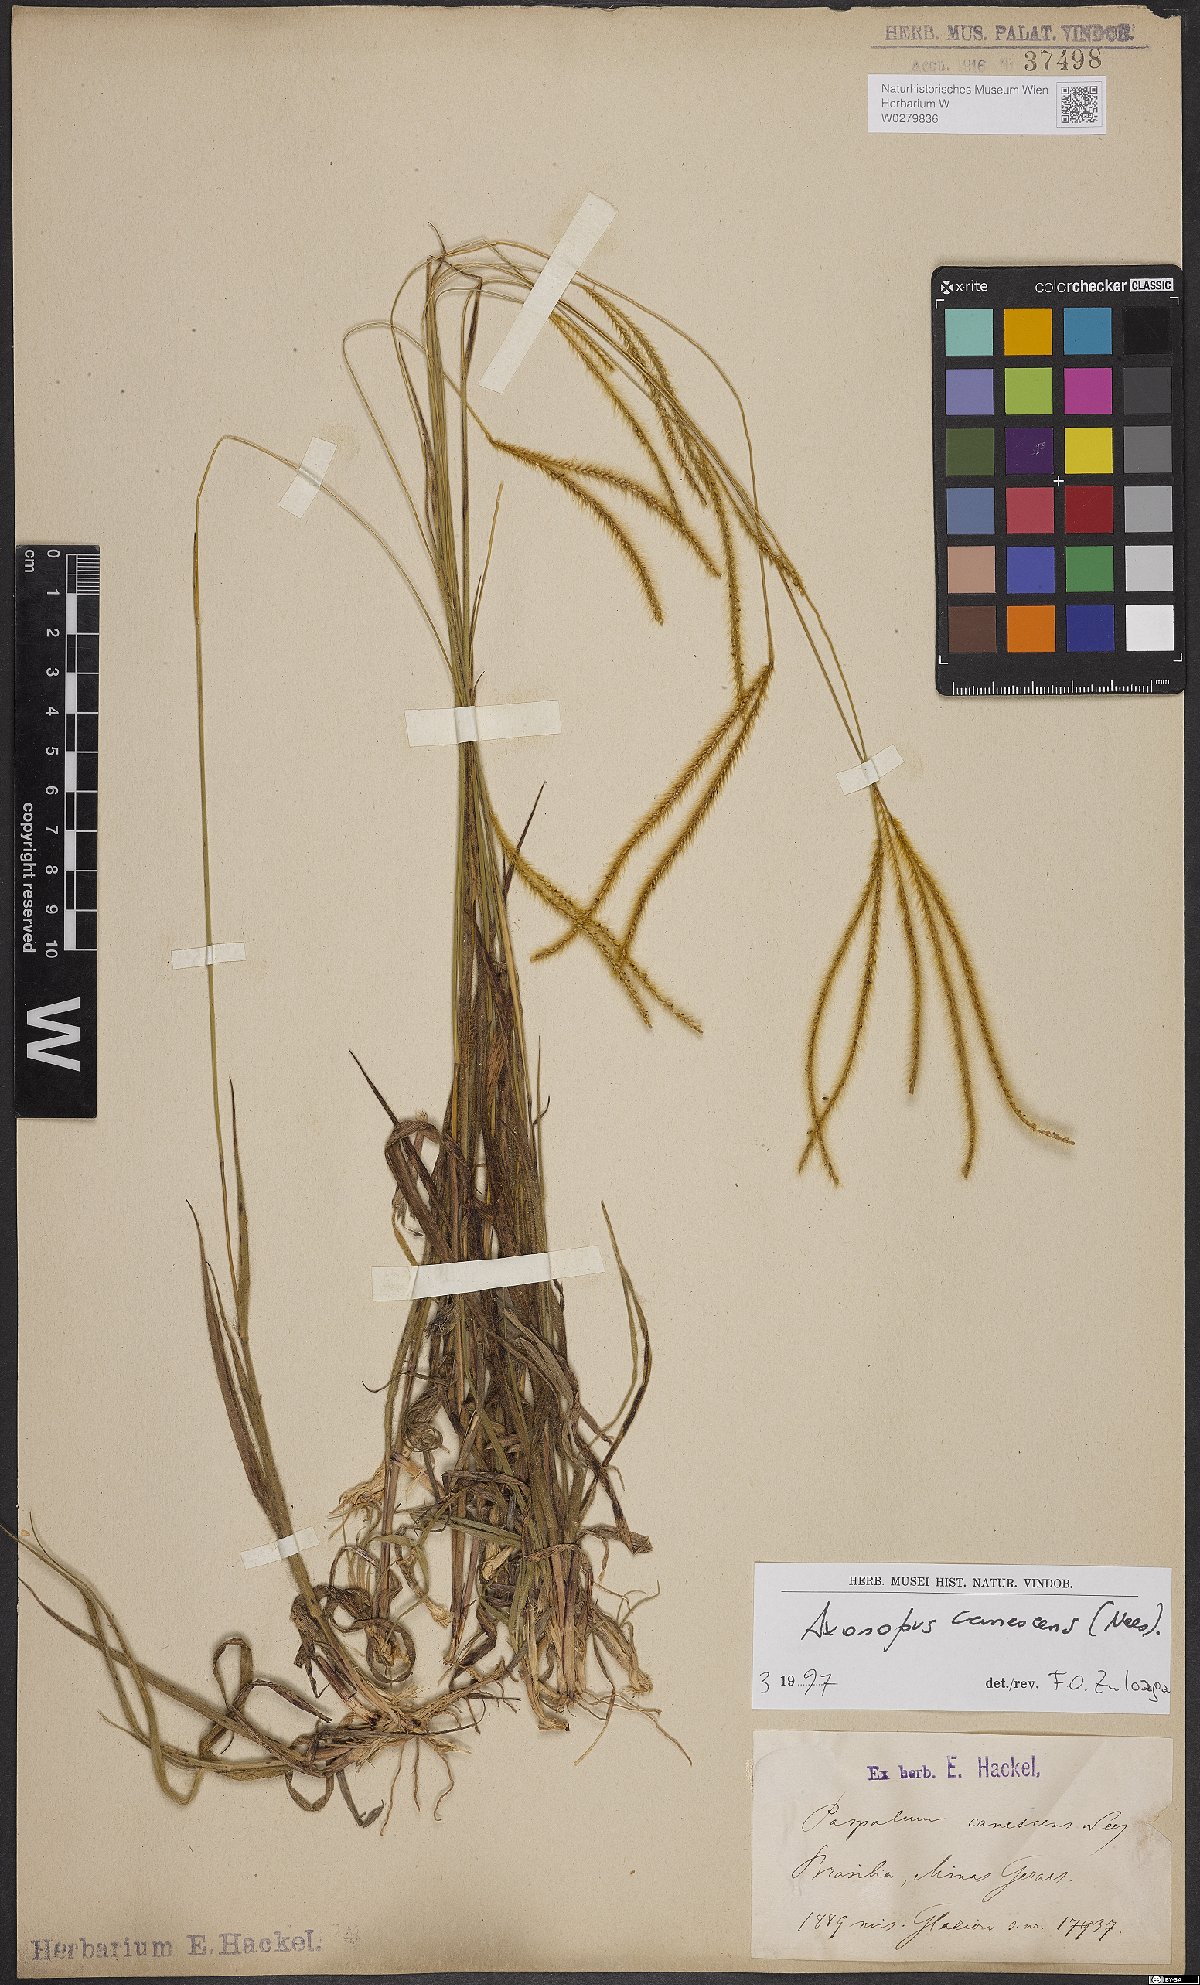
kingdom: Plantae
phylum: Tracheophyta
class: Liliopsida
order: Poales
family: Poaceae
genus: Axonopus
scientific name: Axonopus aureus
